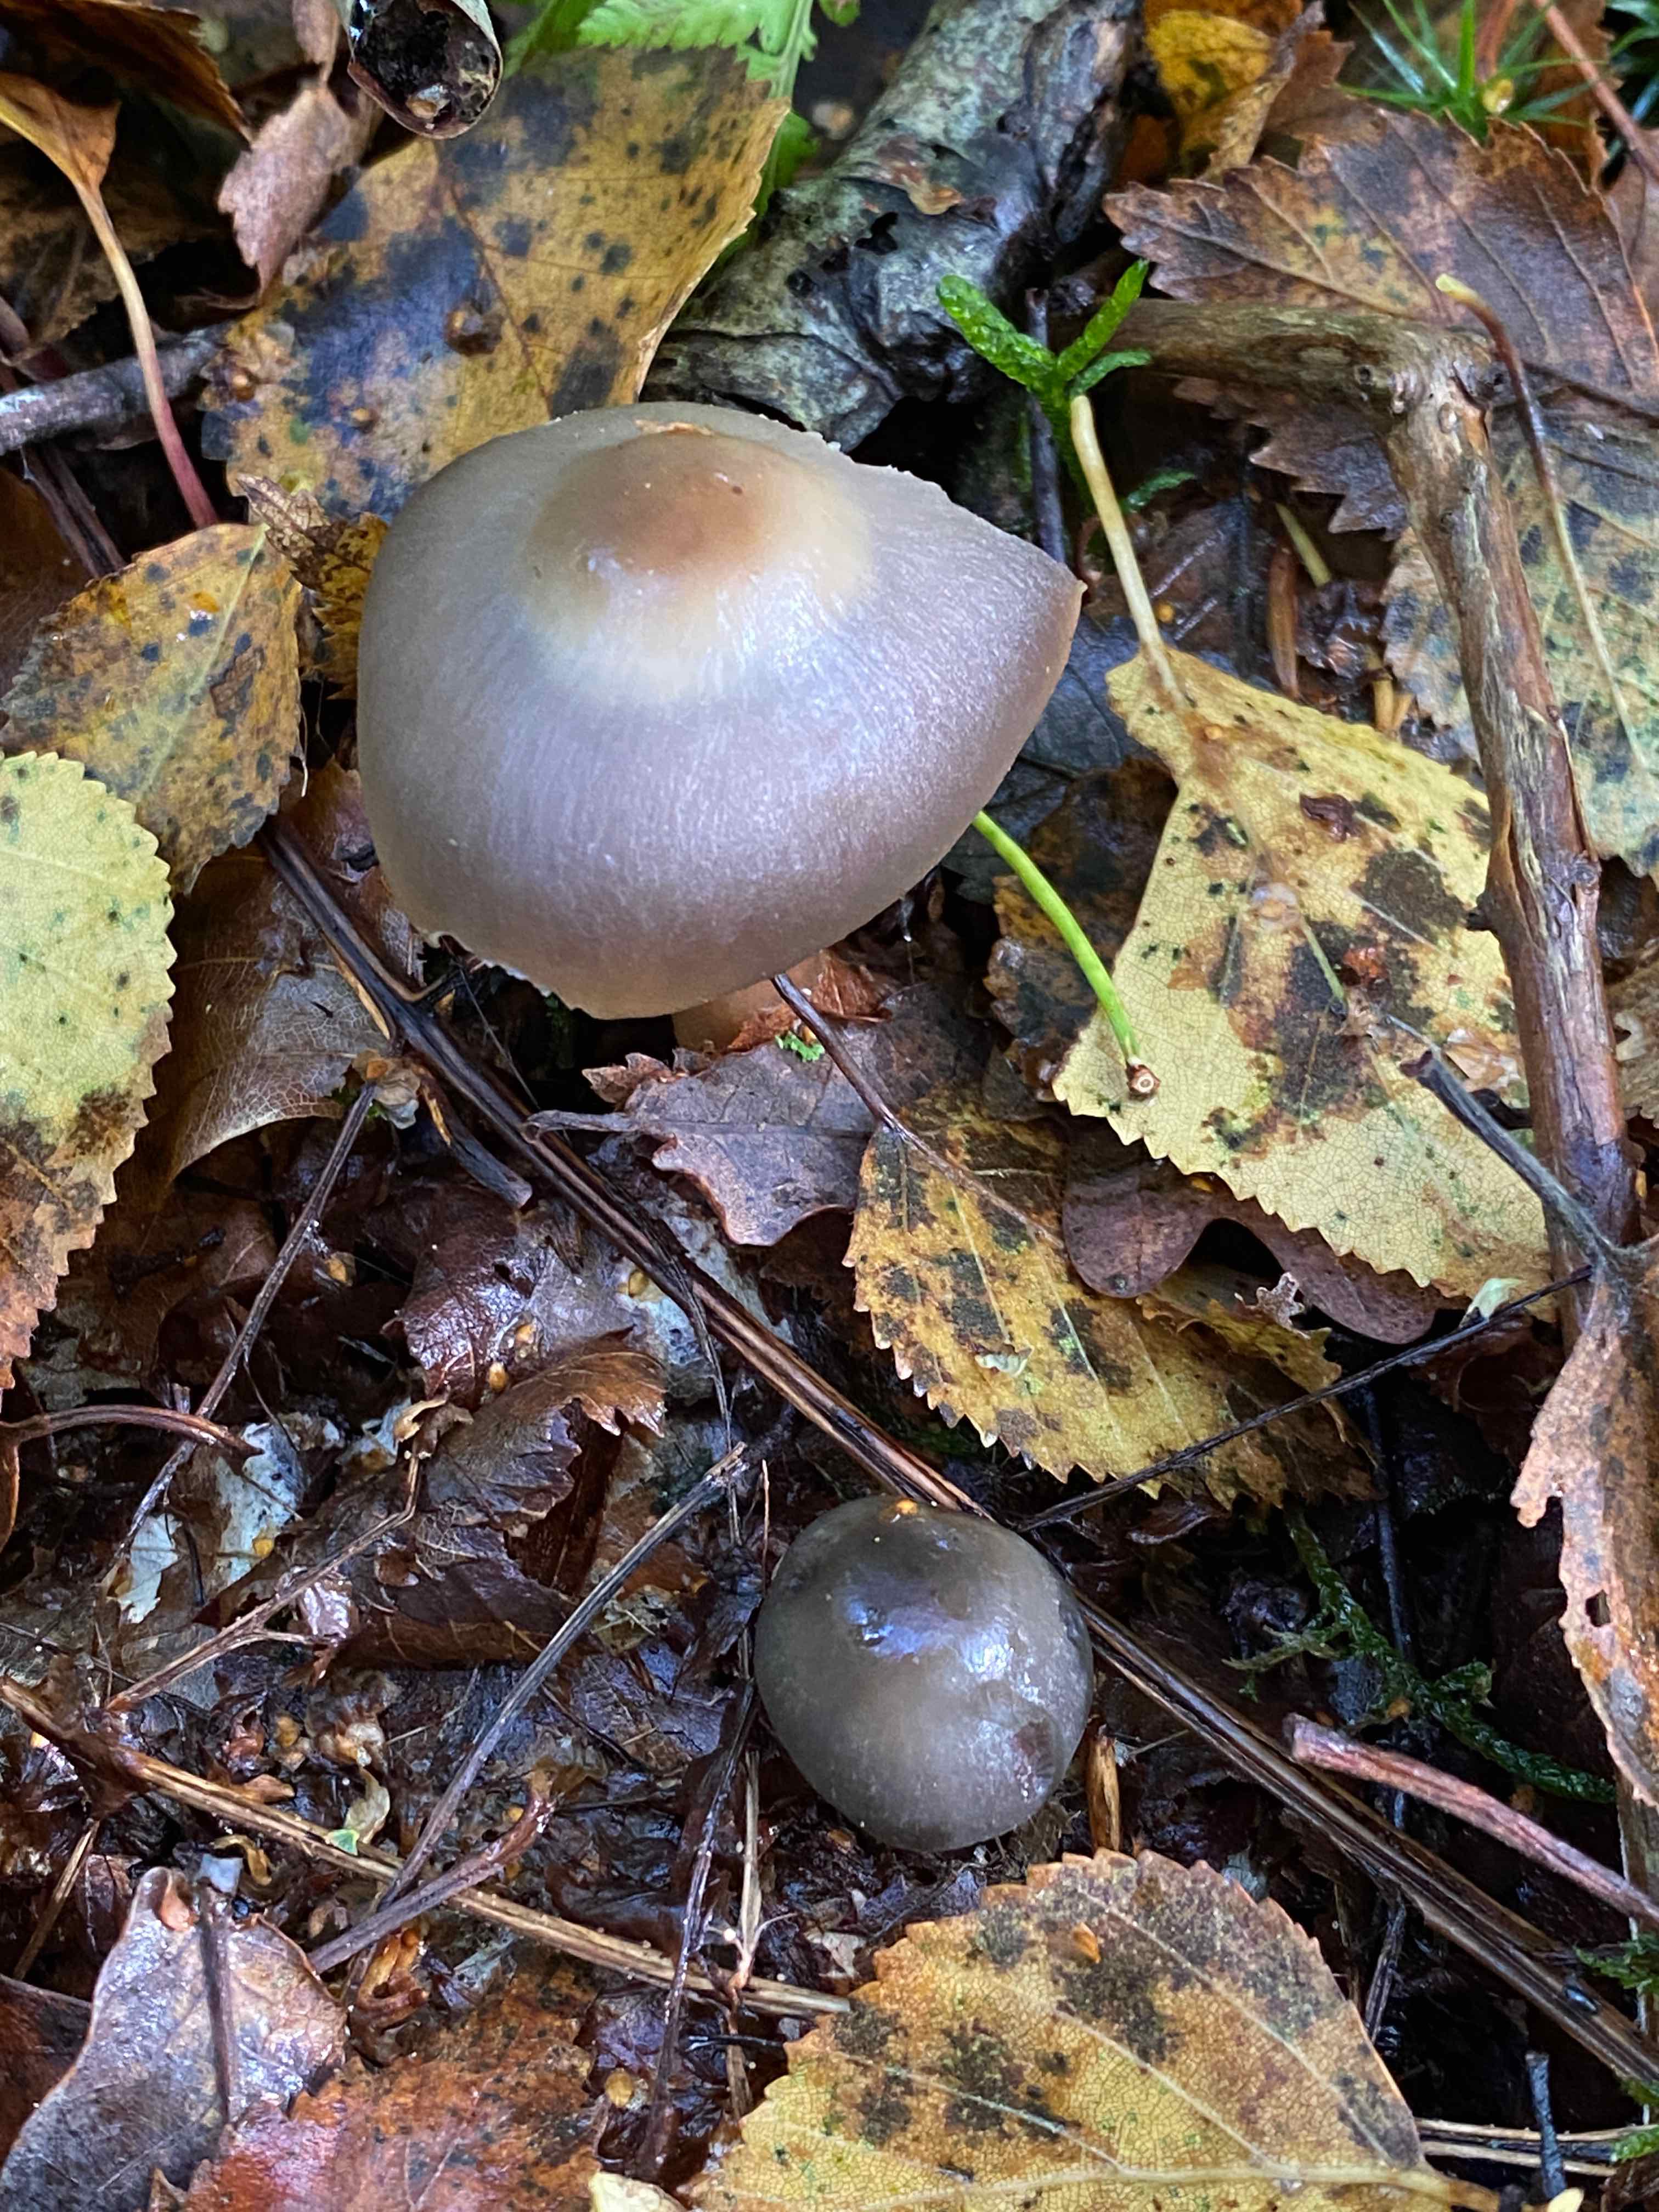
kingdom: Fungi
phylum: Basidiomycota
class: Agaricomycetes
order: Agaricales
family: Omphalotaceae
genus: Rhodocollybia
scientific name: Rhodocollybia asema
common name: horngrå fladhat
